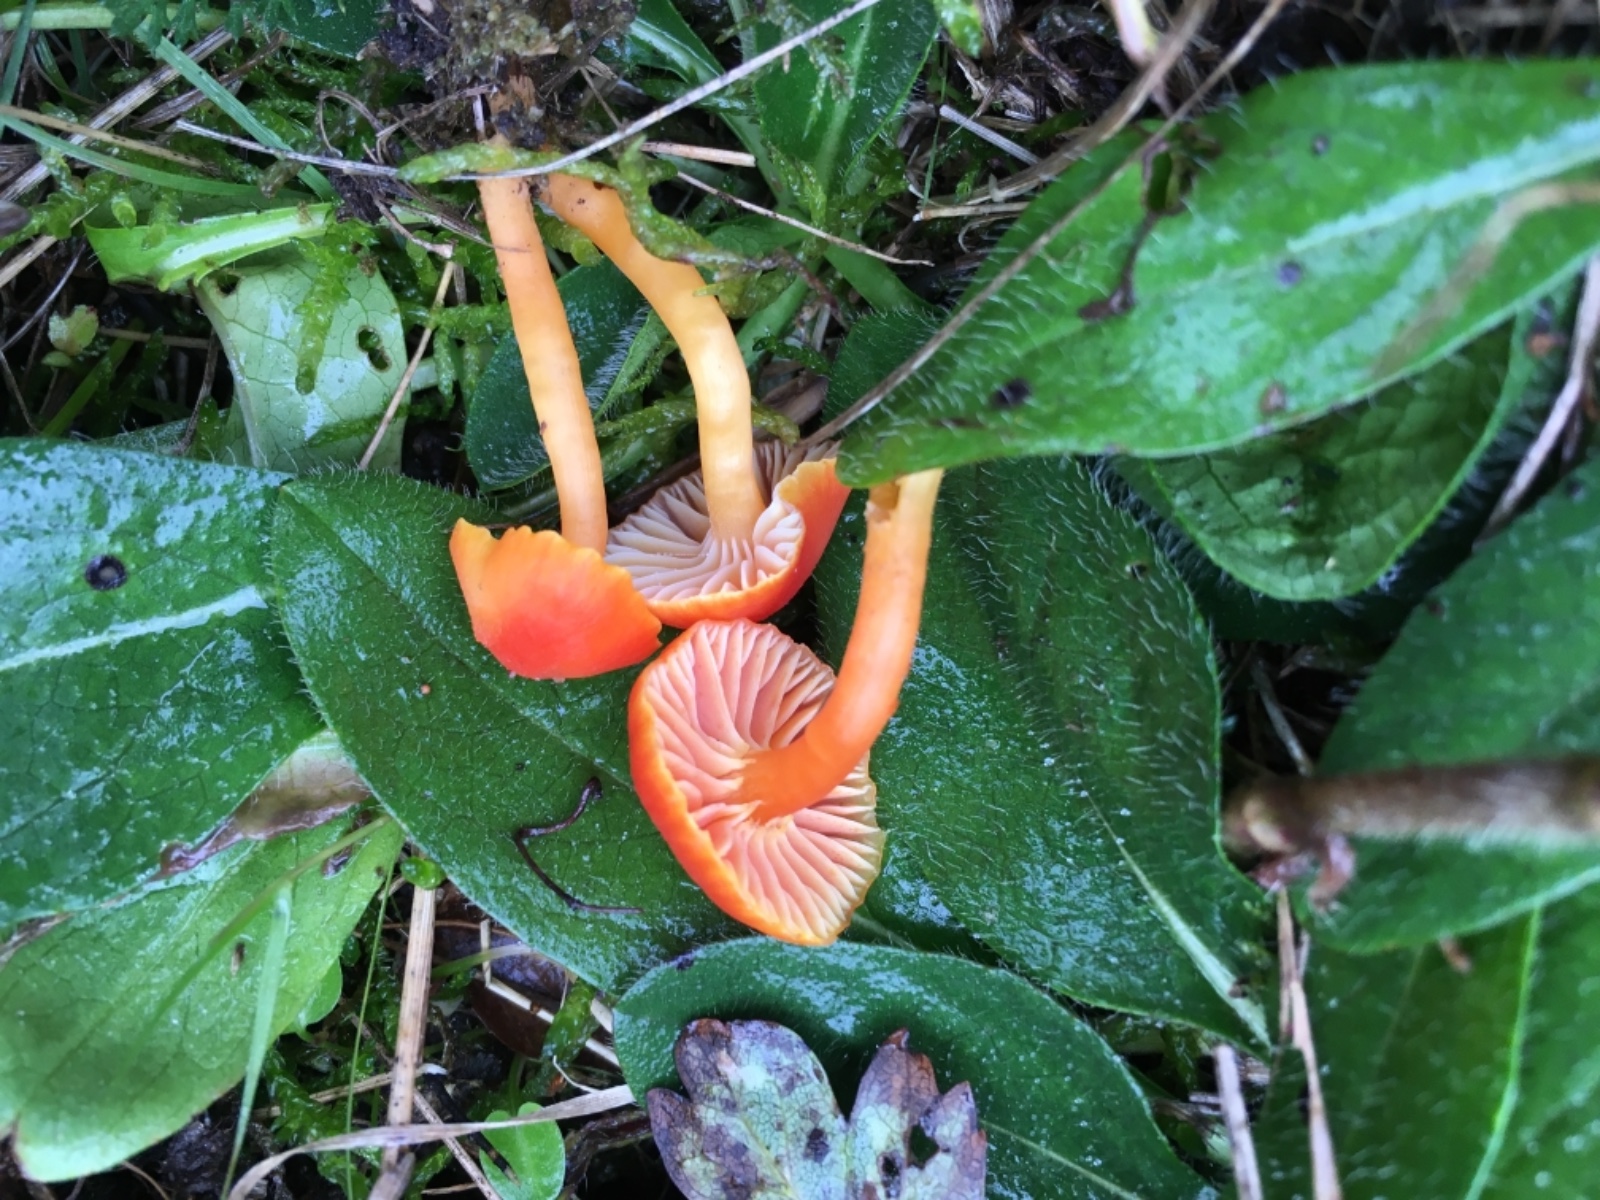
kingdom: Fungi
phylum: Basidiomycota
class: Agaricomycetes
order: Agaricales
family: Hygrophoraceae
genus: Hygrocybe
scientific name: Hygrocybe
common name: vokshat
